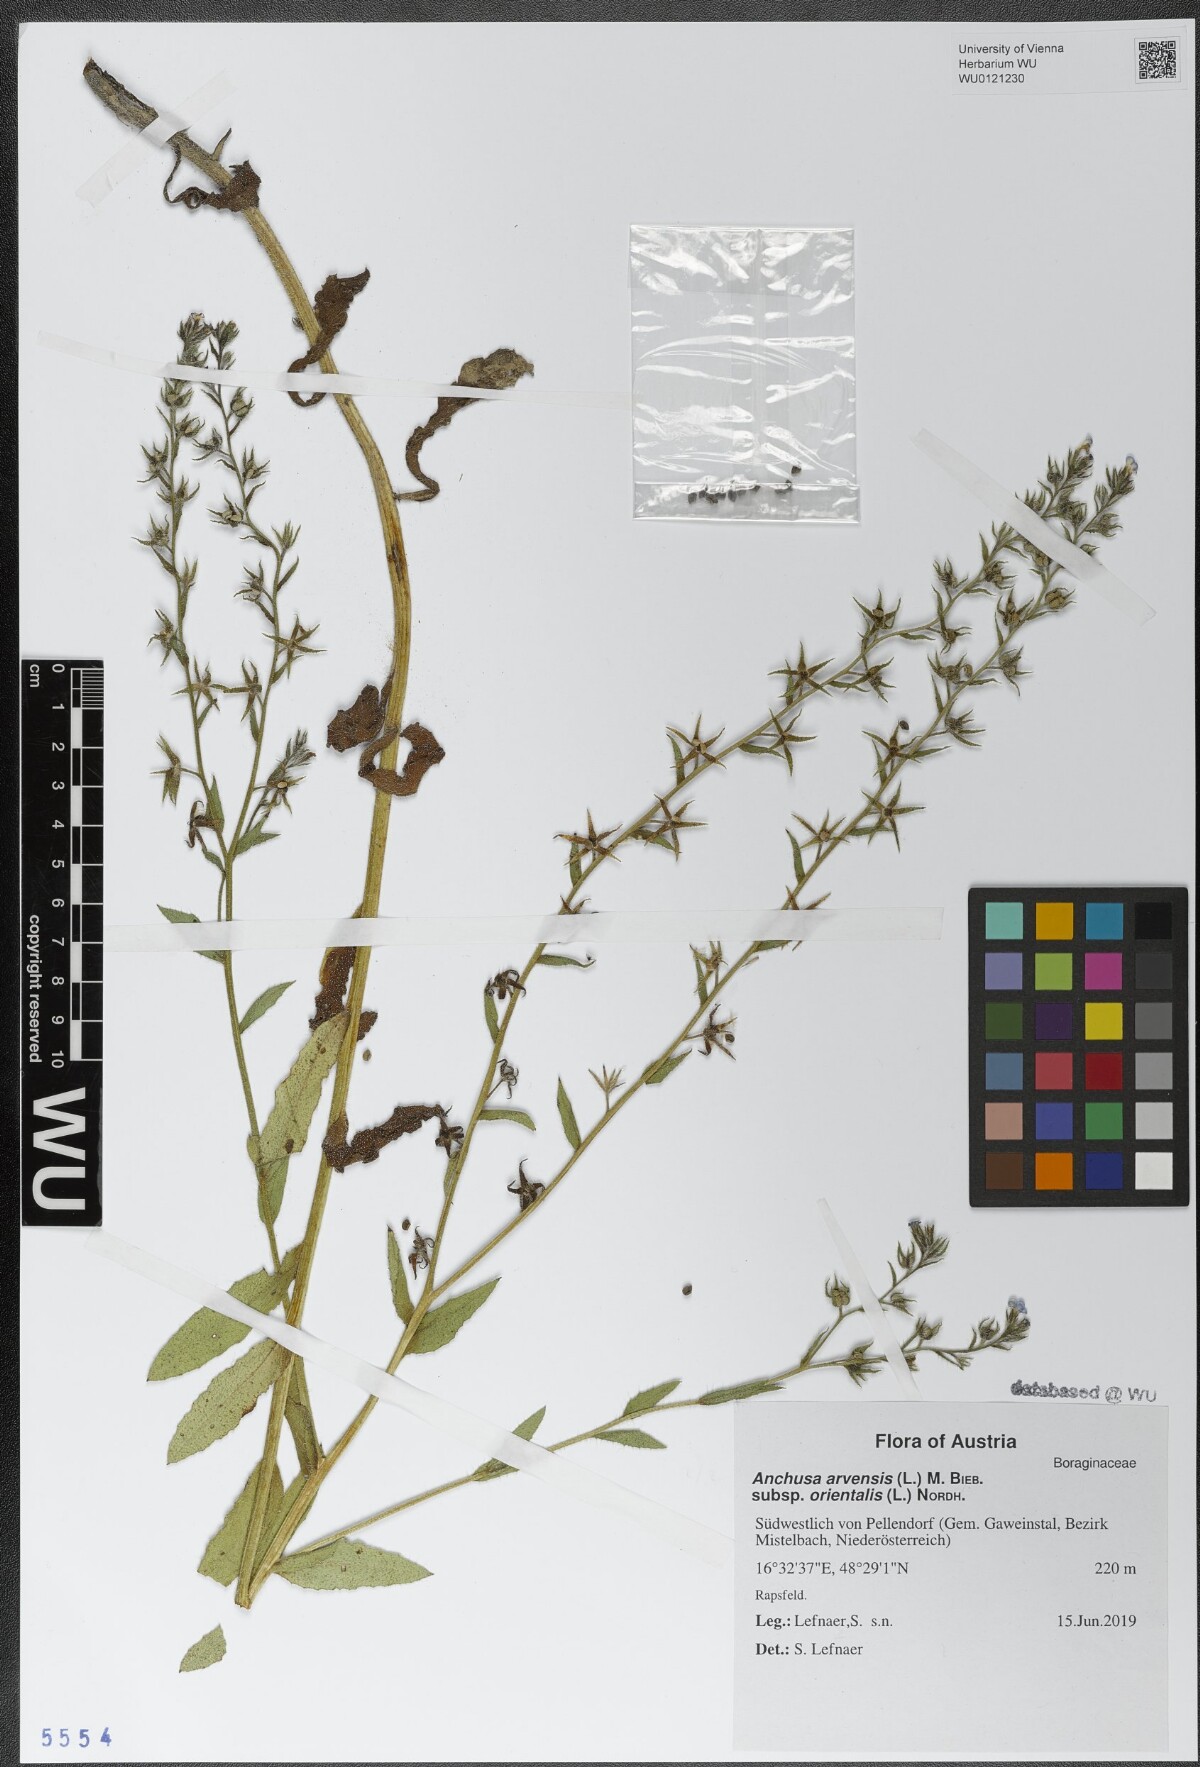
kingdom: Plantae
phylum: Tracheophyta
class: Magnoliopsida
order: Boraginales
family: Boraginaceae
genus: Lycopsis
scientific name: Lycopsis arvensis
